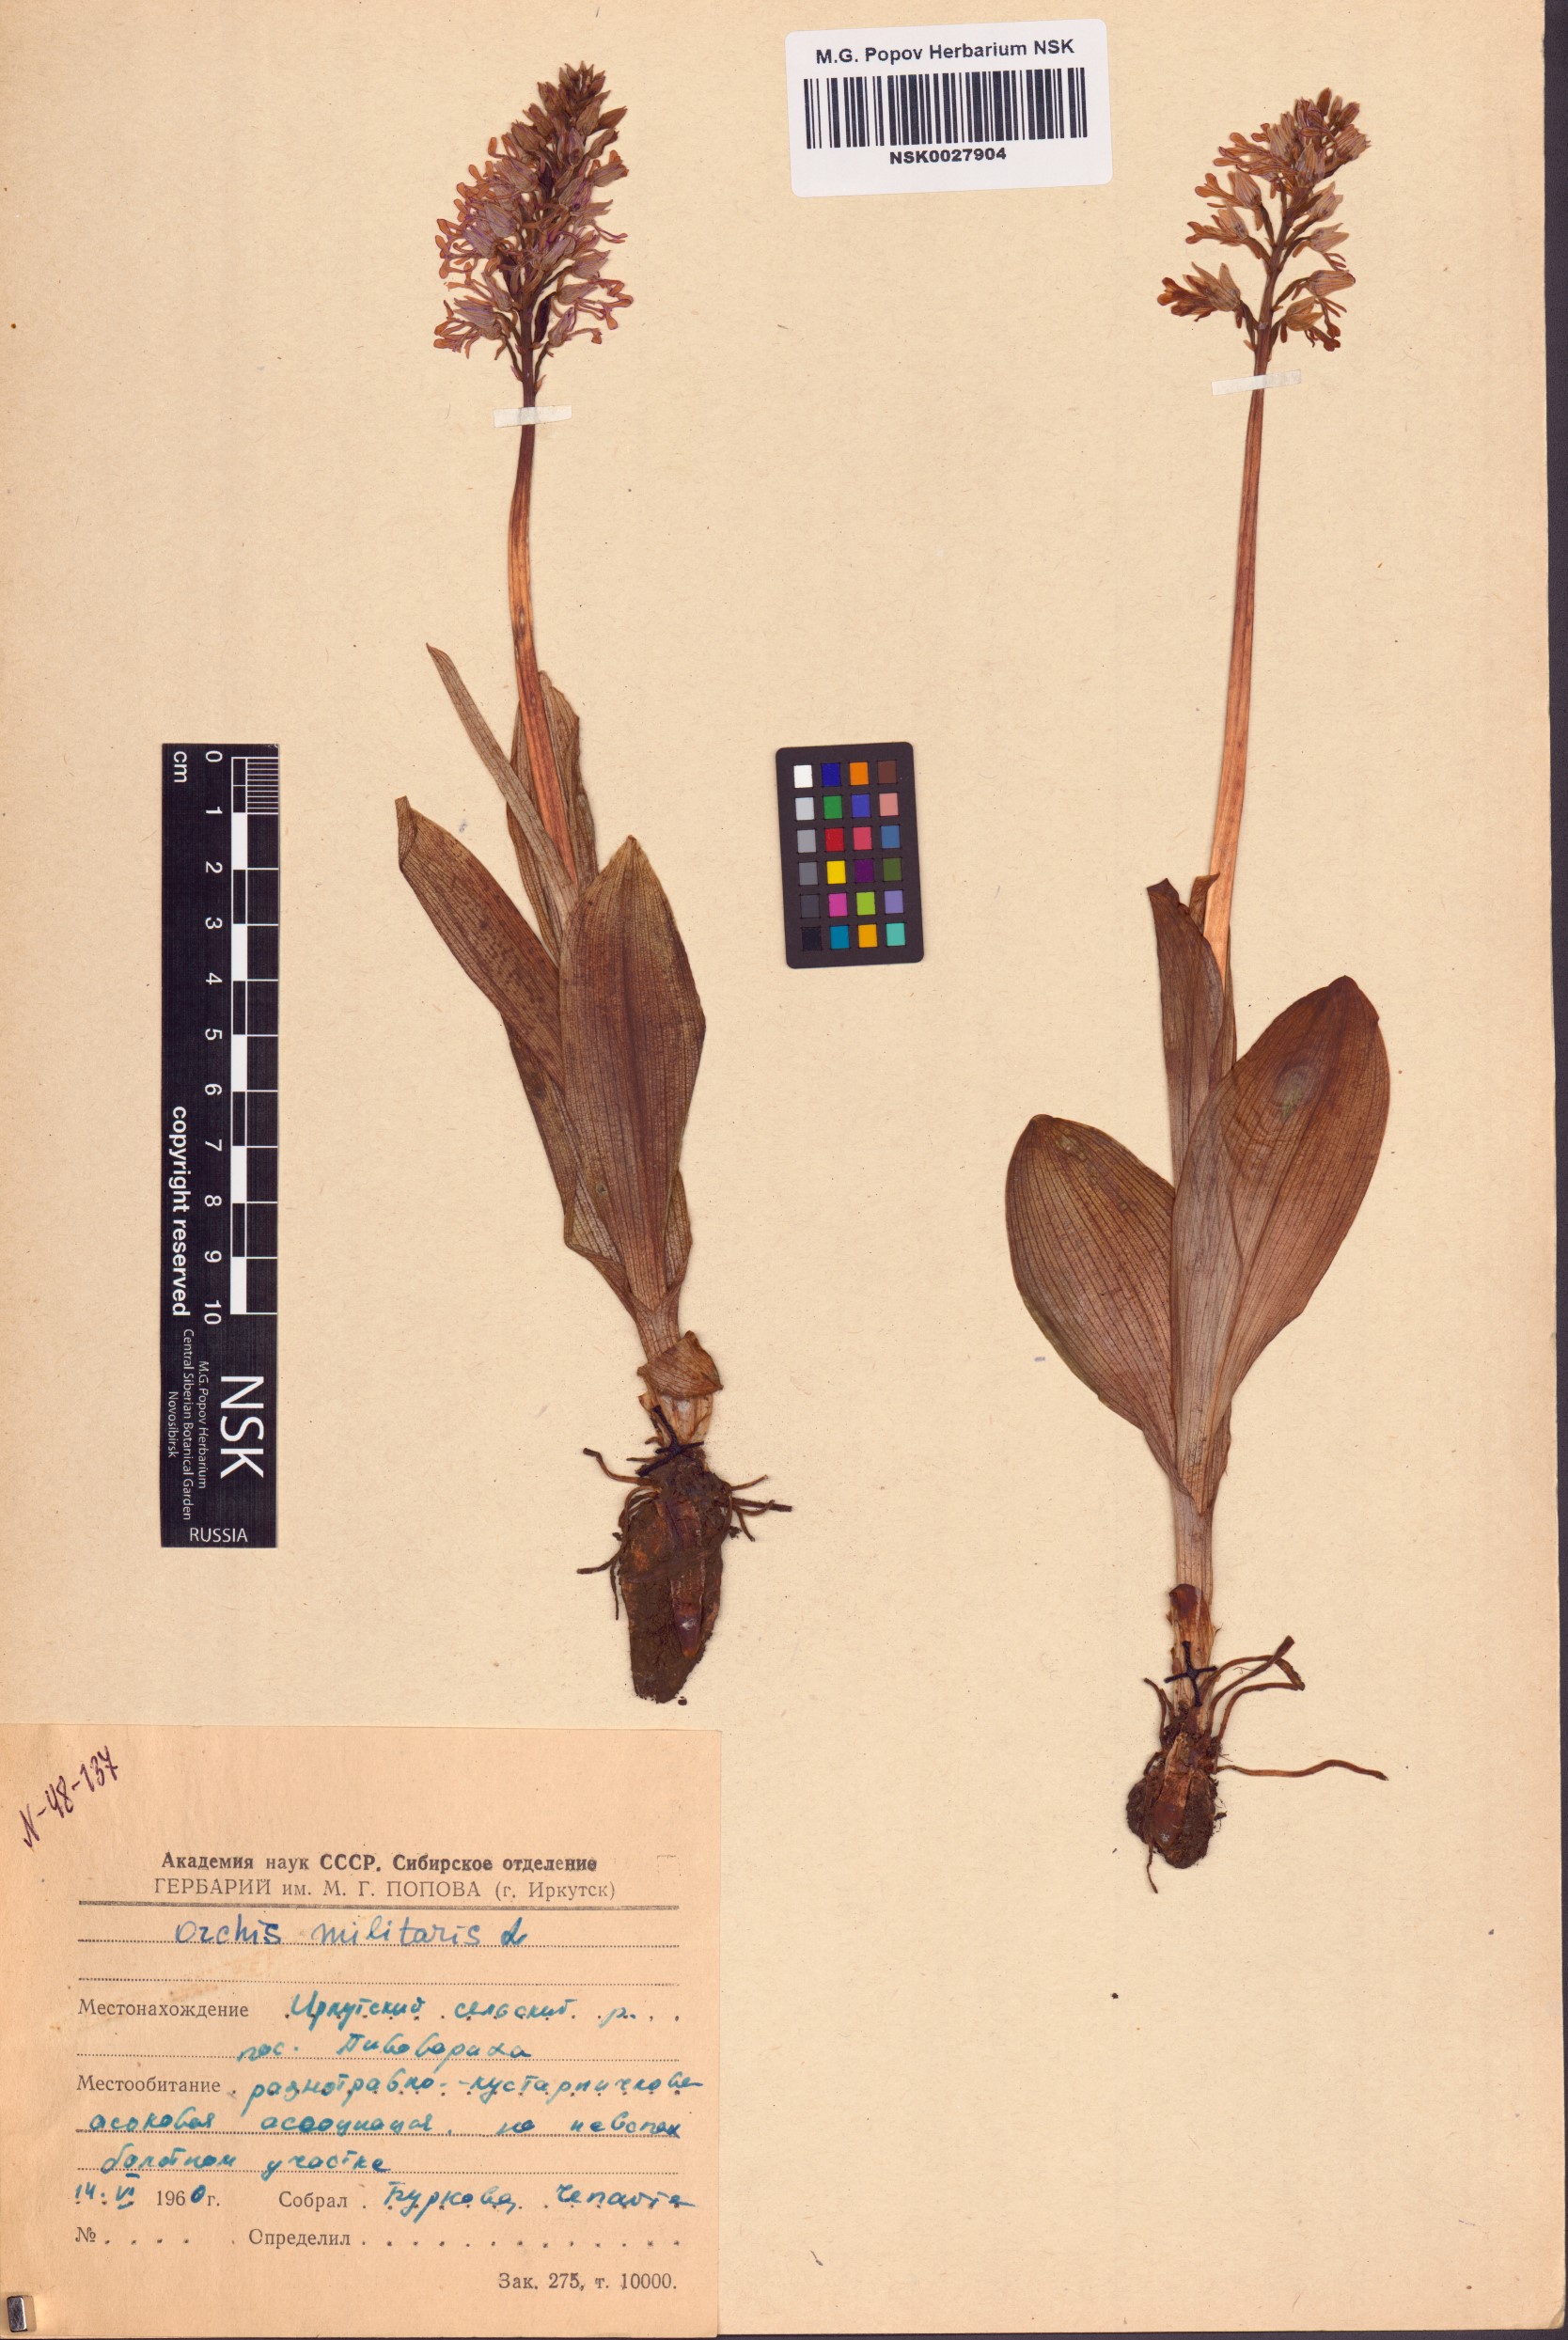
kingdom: Plantae
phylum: Tracheophyta
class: Liliopsida
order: Asparagales
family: Orchidaceae
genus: Orchis
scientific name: Orchis militaris
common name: Military orchid
